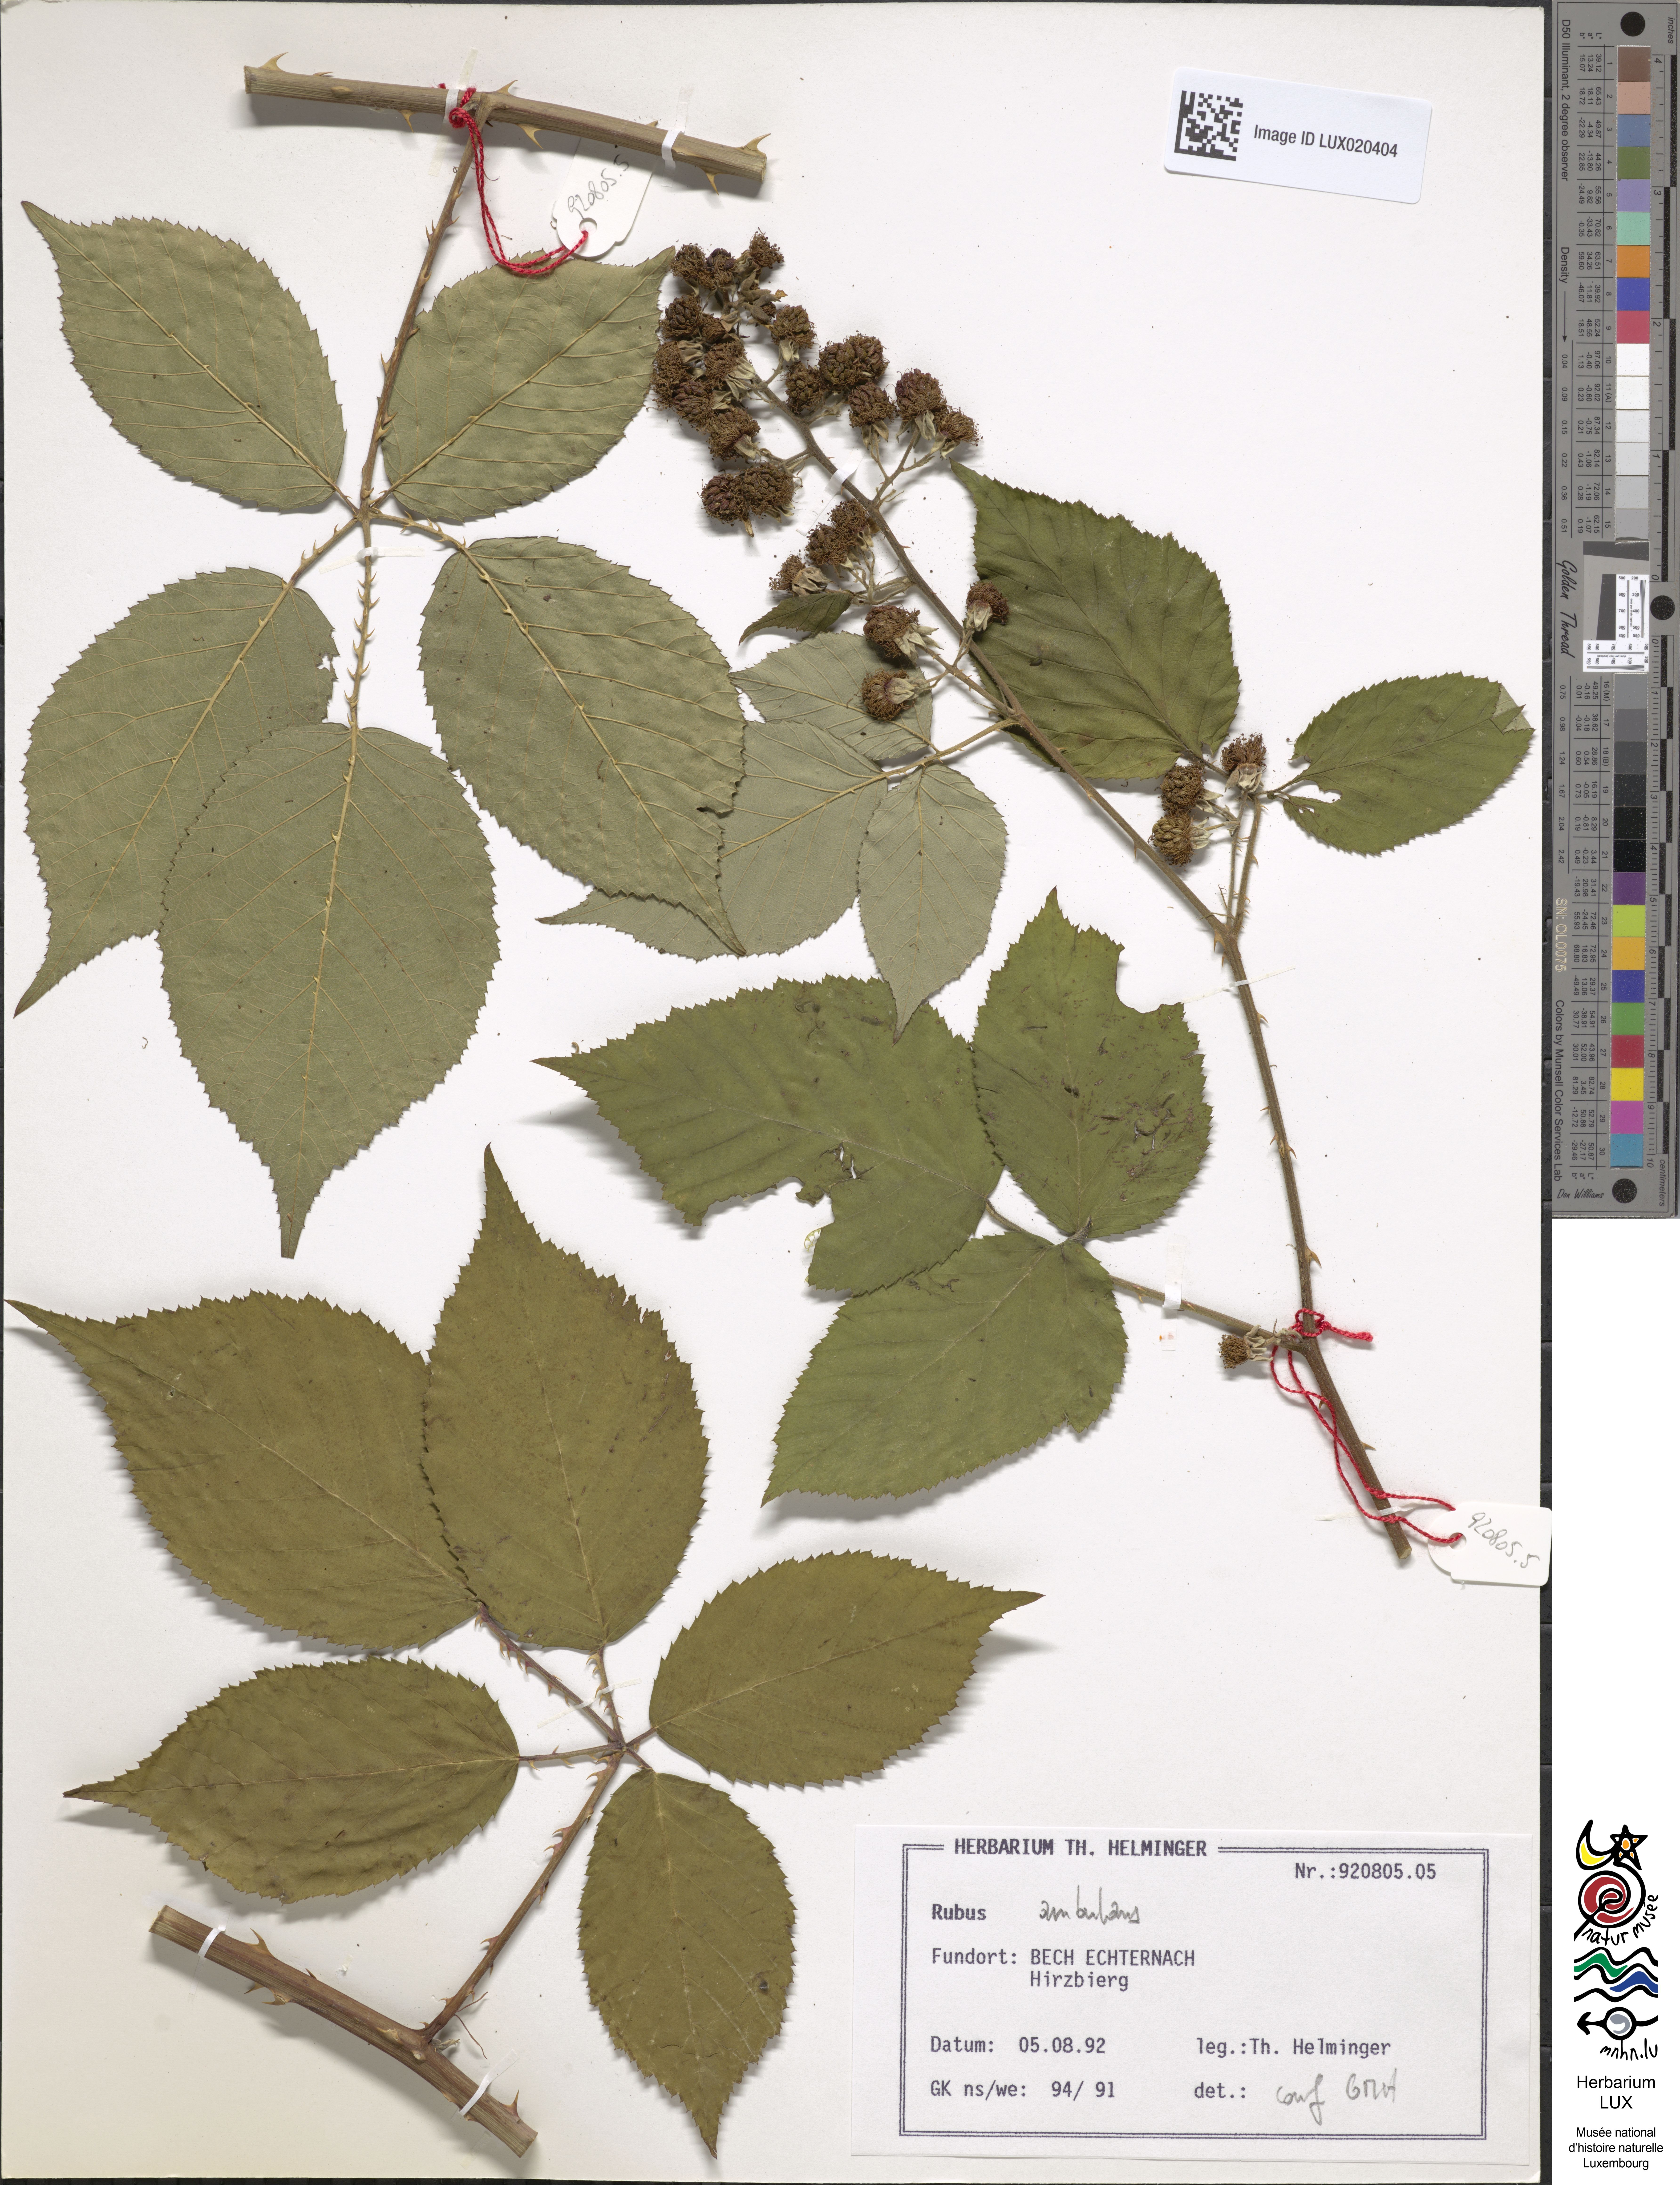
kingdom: Plantae
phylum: Tracheophyta
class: Magnoliopsida
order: Rosales
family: Rosaceae
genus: Rubus
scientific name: Rubus gremlii
